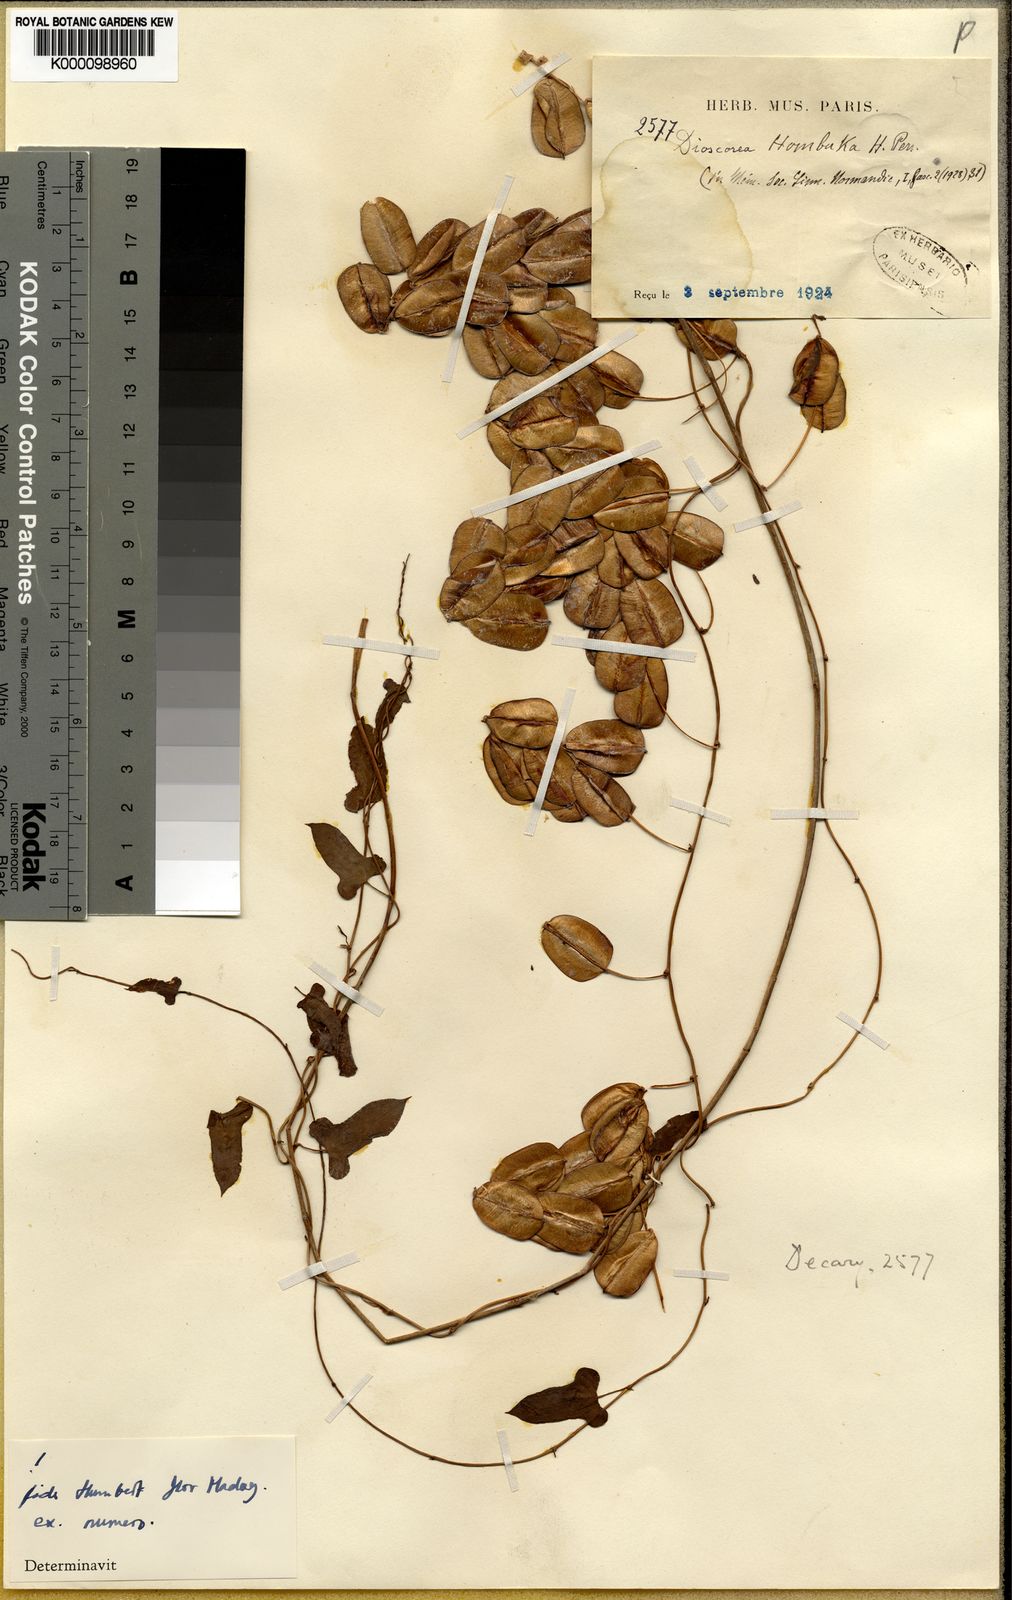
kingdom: Plantae
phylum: Tracheophyta
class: Liliopsida
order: Dioscoreales
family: Dioscoreaceae
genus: Dioscorea
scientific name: Dioscorea hombuka
